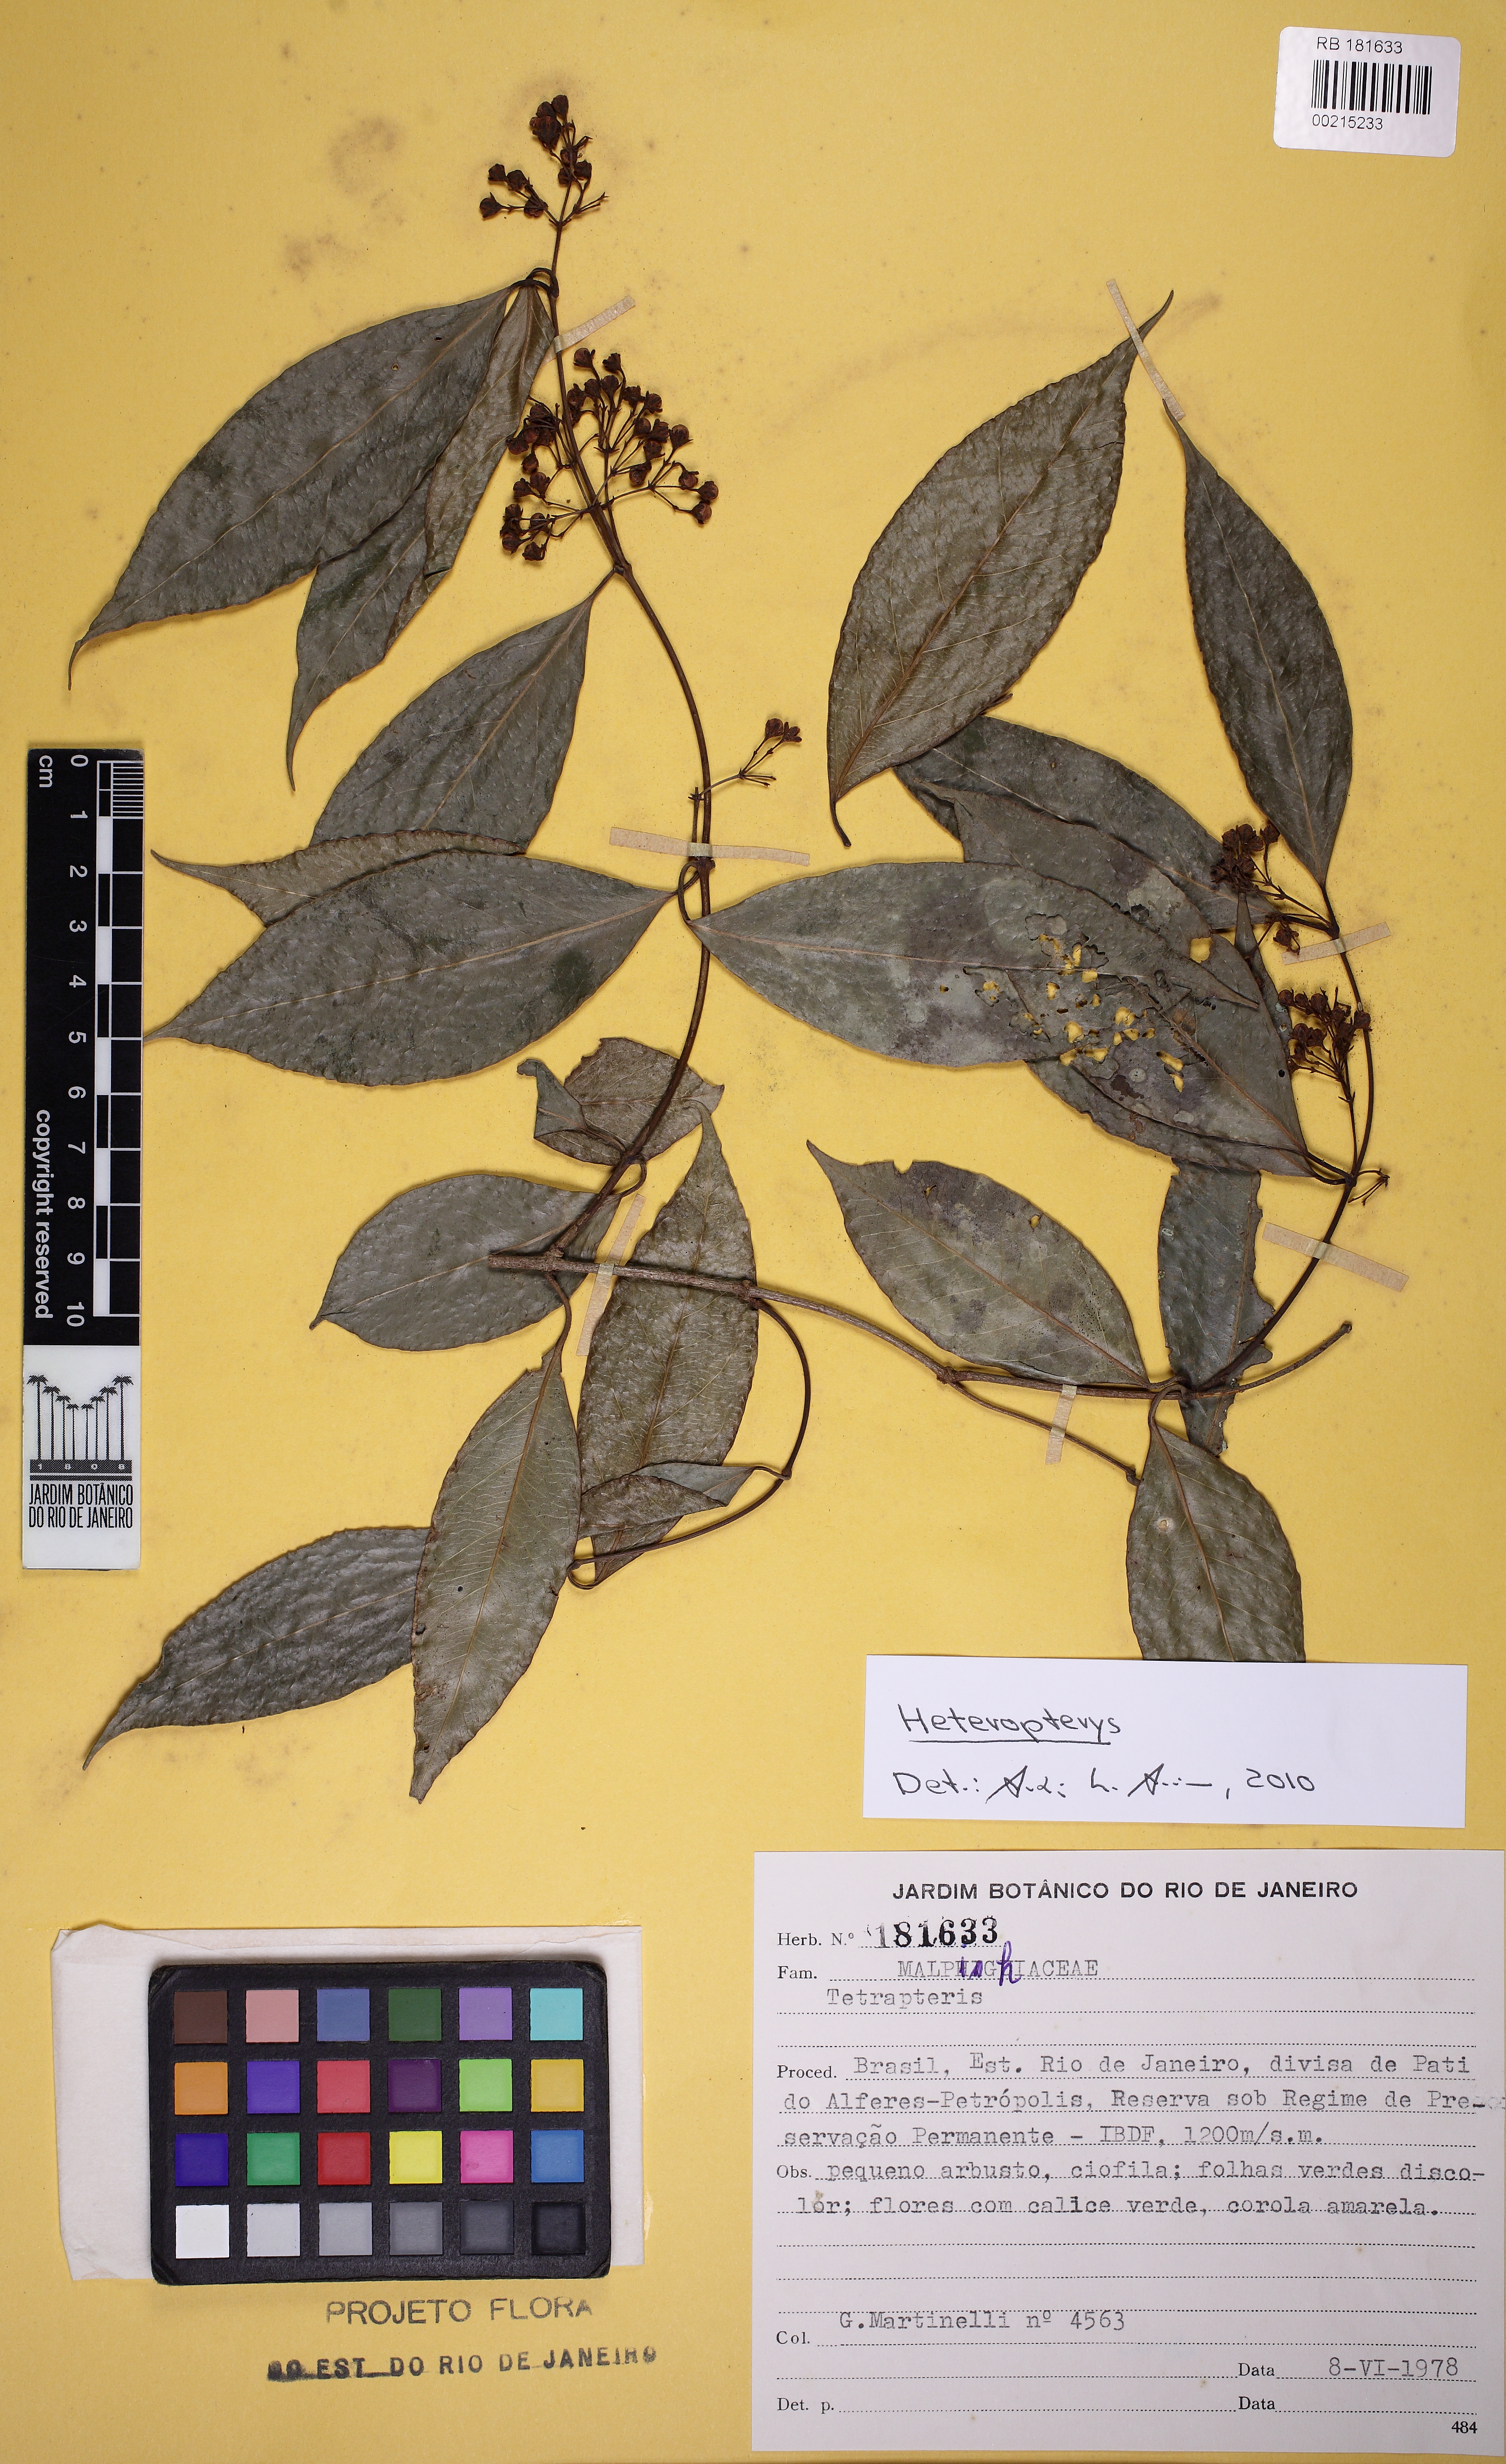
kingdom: Plantae
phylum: Tracheophyta
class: Magnoliopsida
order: Malpighiales
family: Malpighiaceae
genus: Heteropterys
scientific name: Heteropterys
